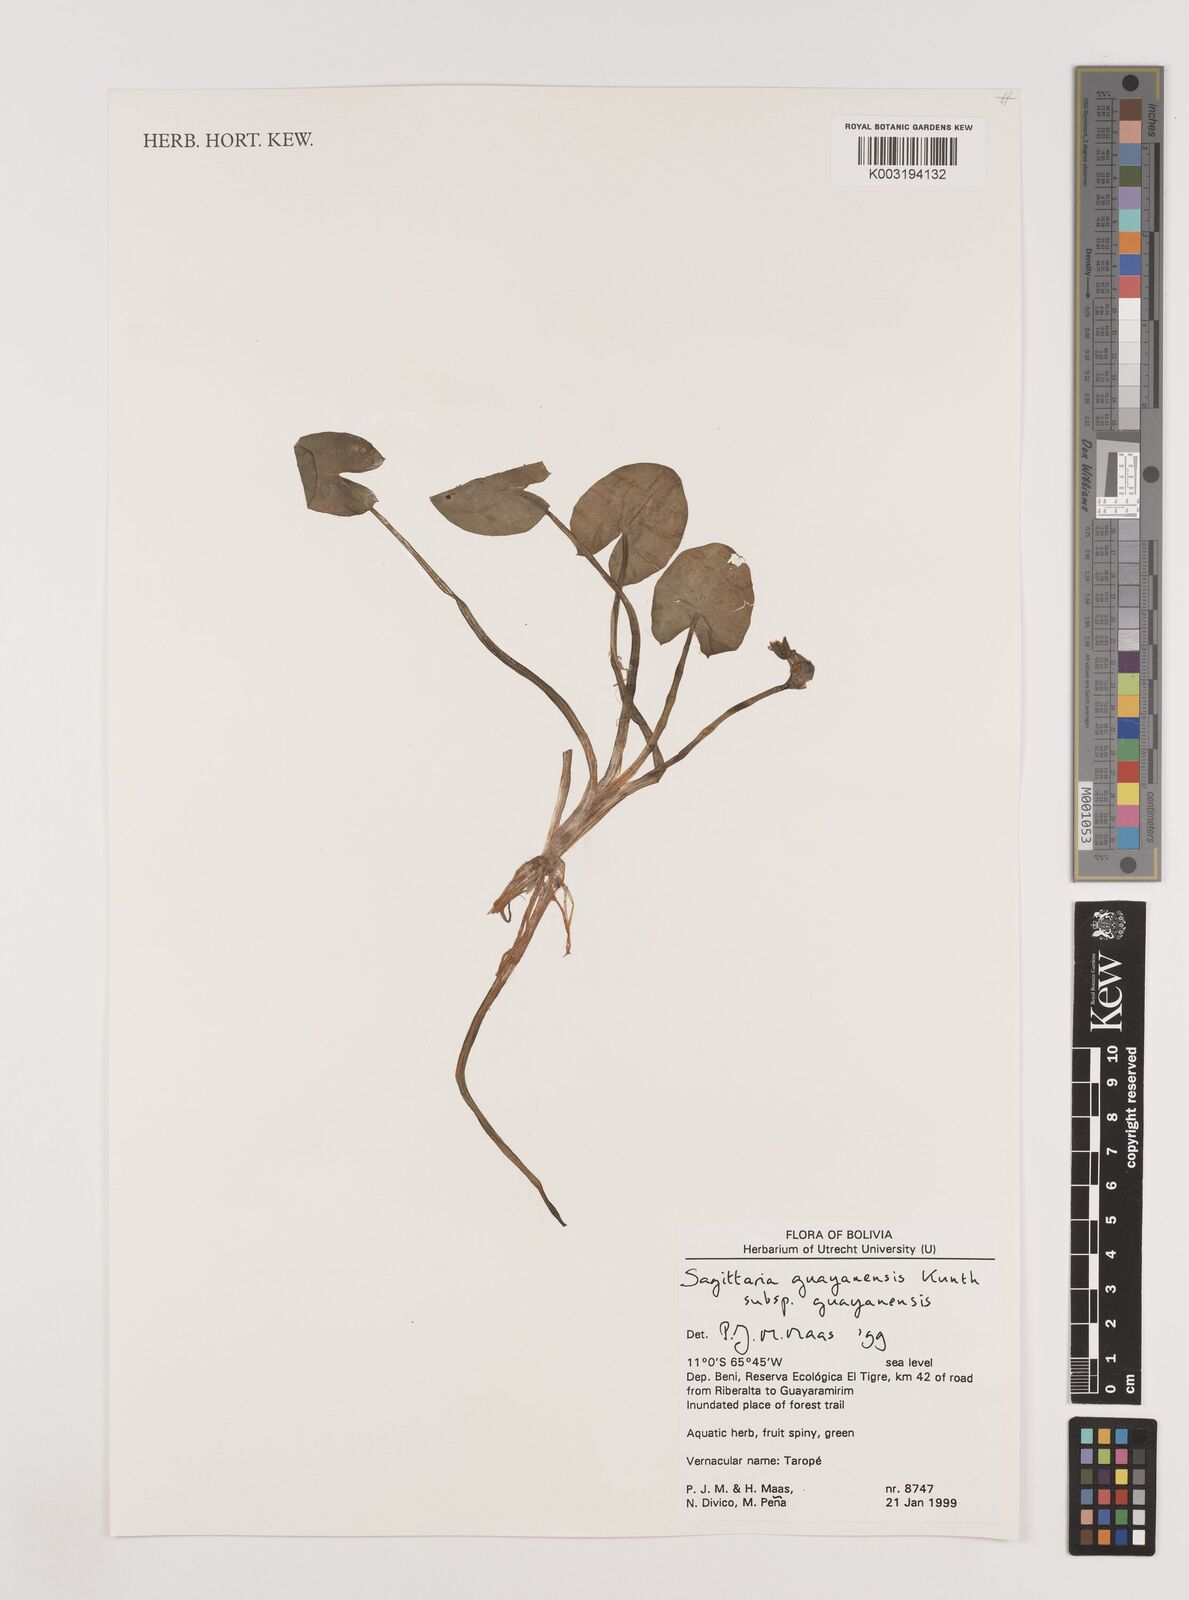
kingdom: Plantae
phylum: Tracheophyta
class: Liliopsida
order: Alismatales
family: Alismataceae
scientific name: Alismataceae
